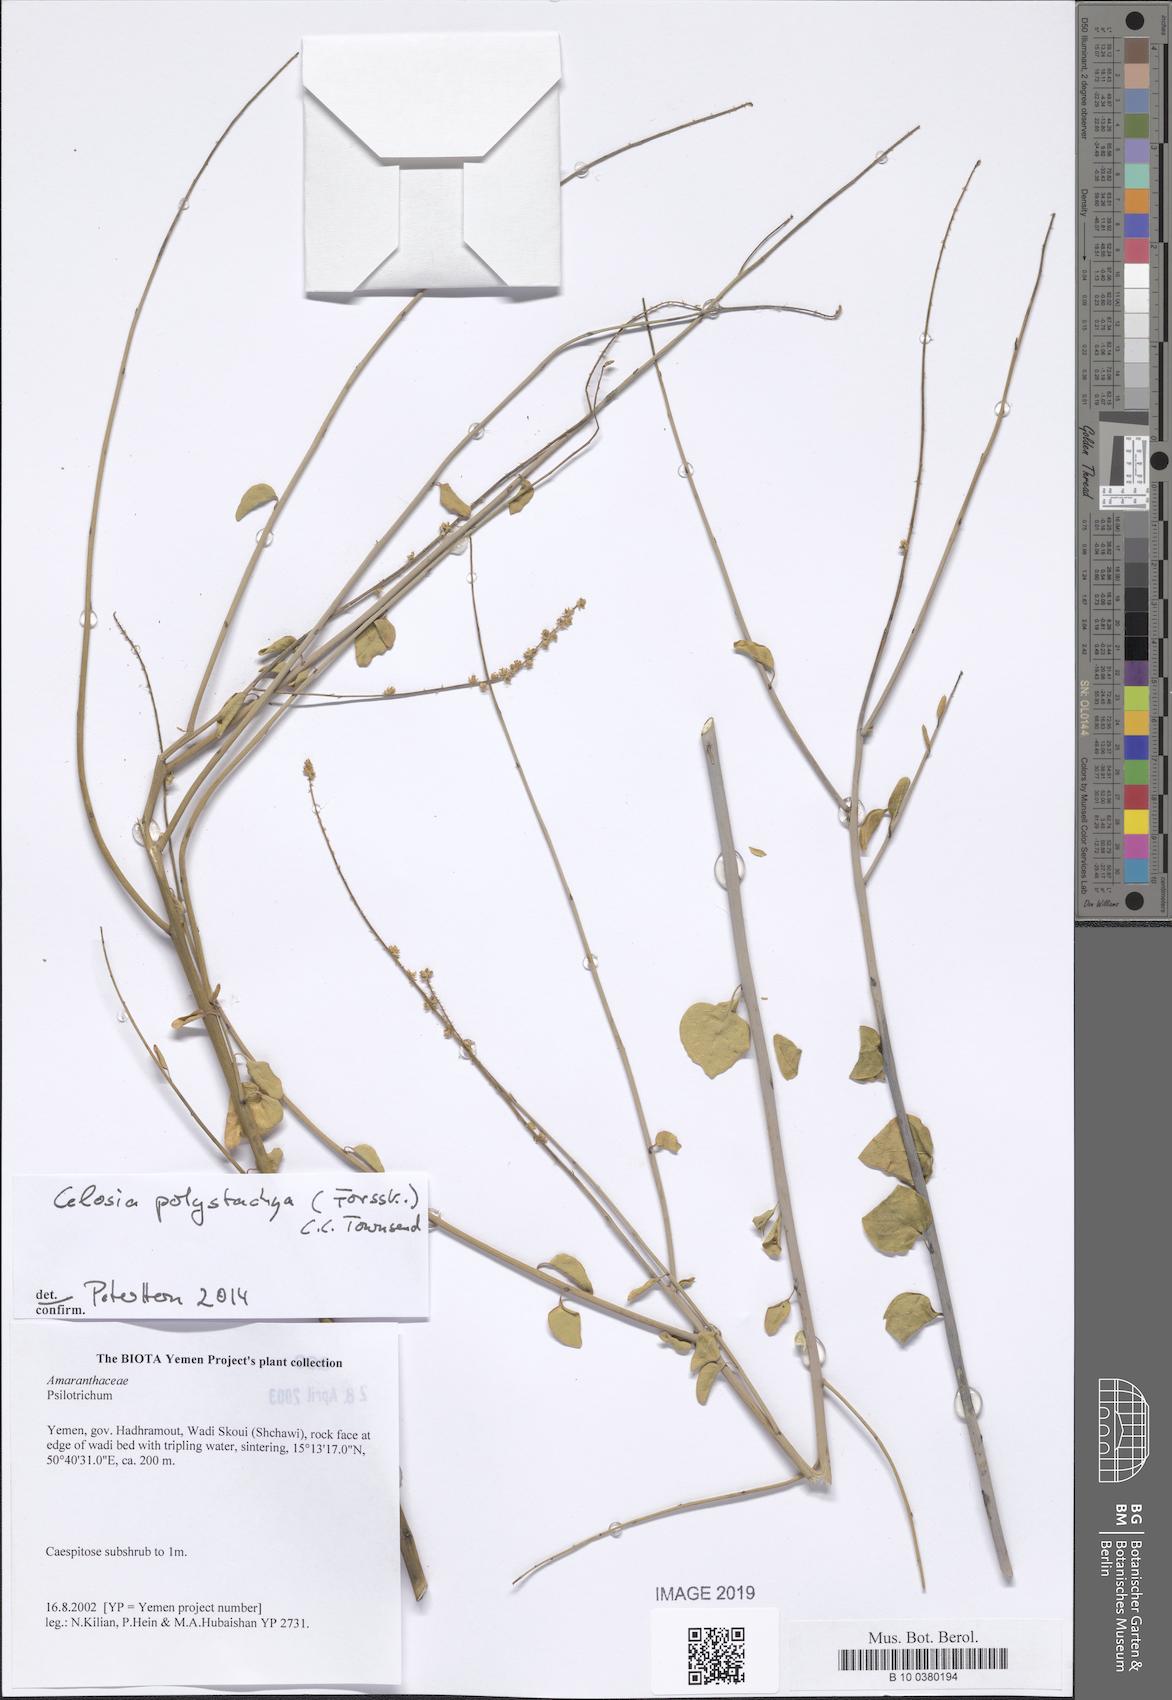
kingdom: Plantae
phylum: Tracheophyta
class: Magnoliopsida
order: Caryophyllales
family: Amaranthaceae
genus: Psilotrichum
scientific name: Psilotrichum
